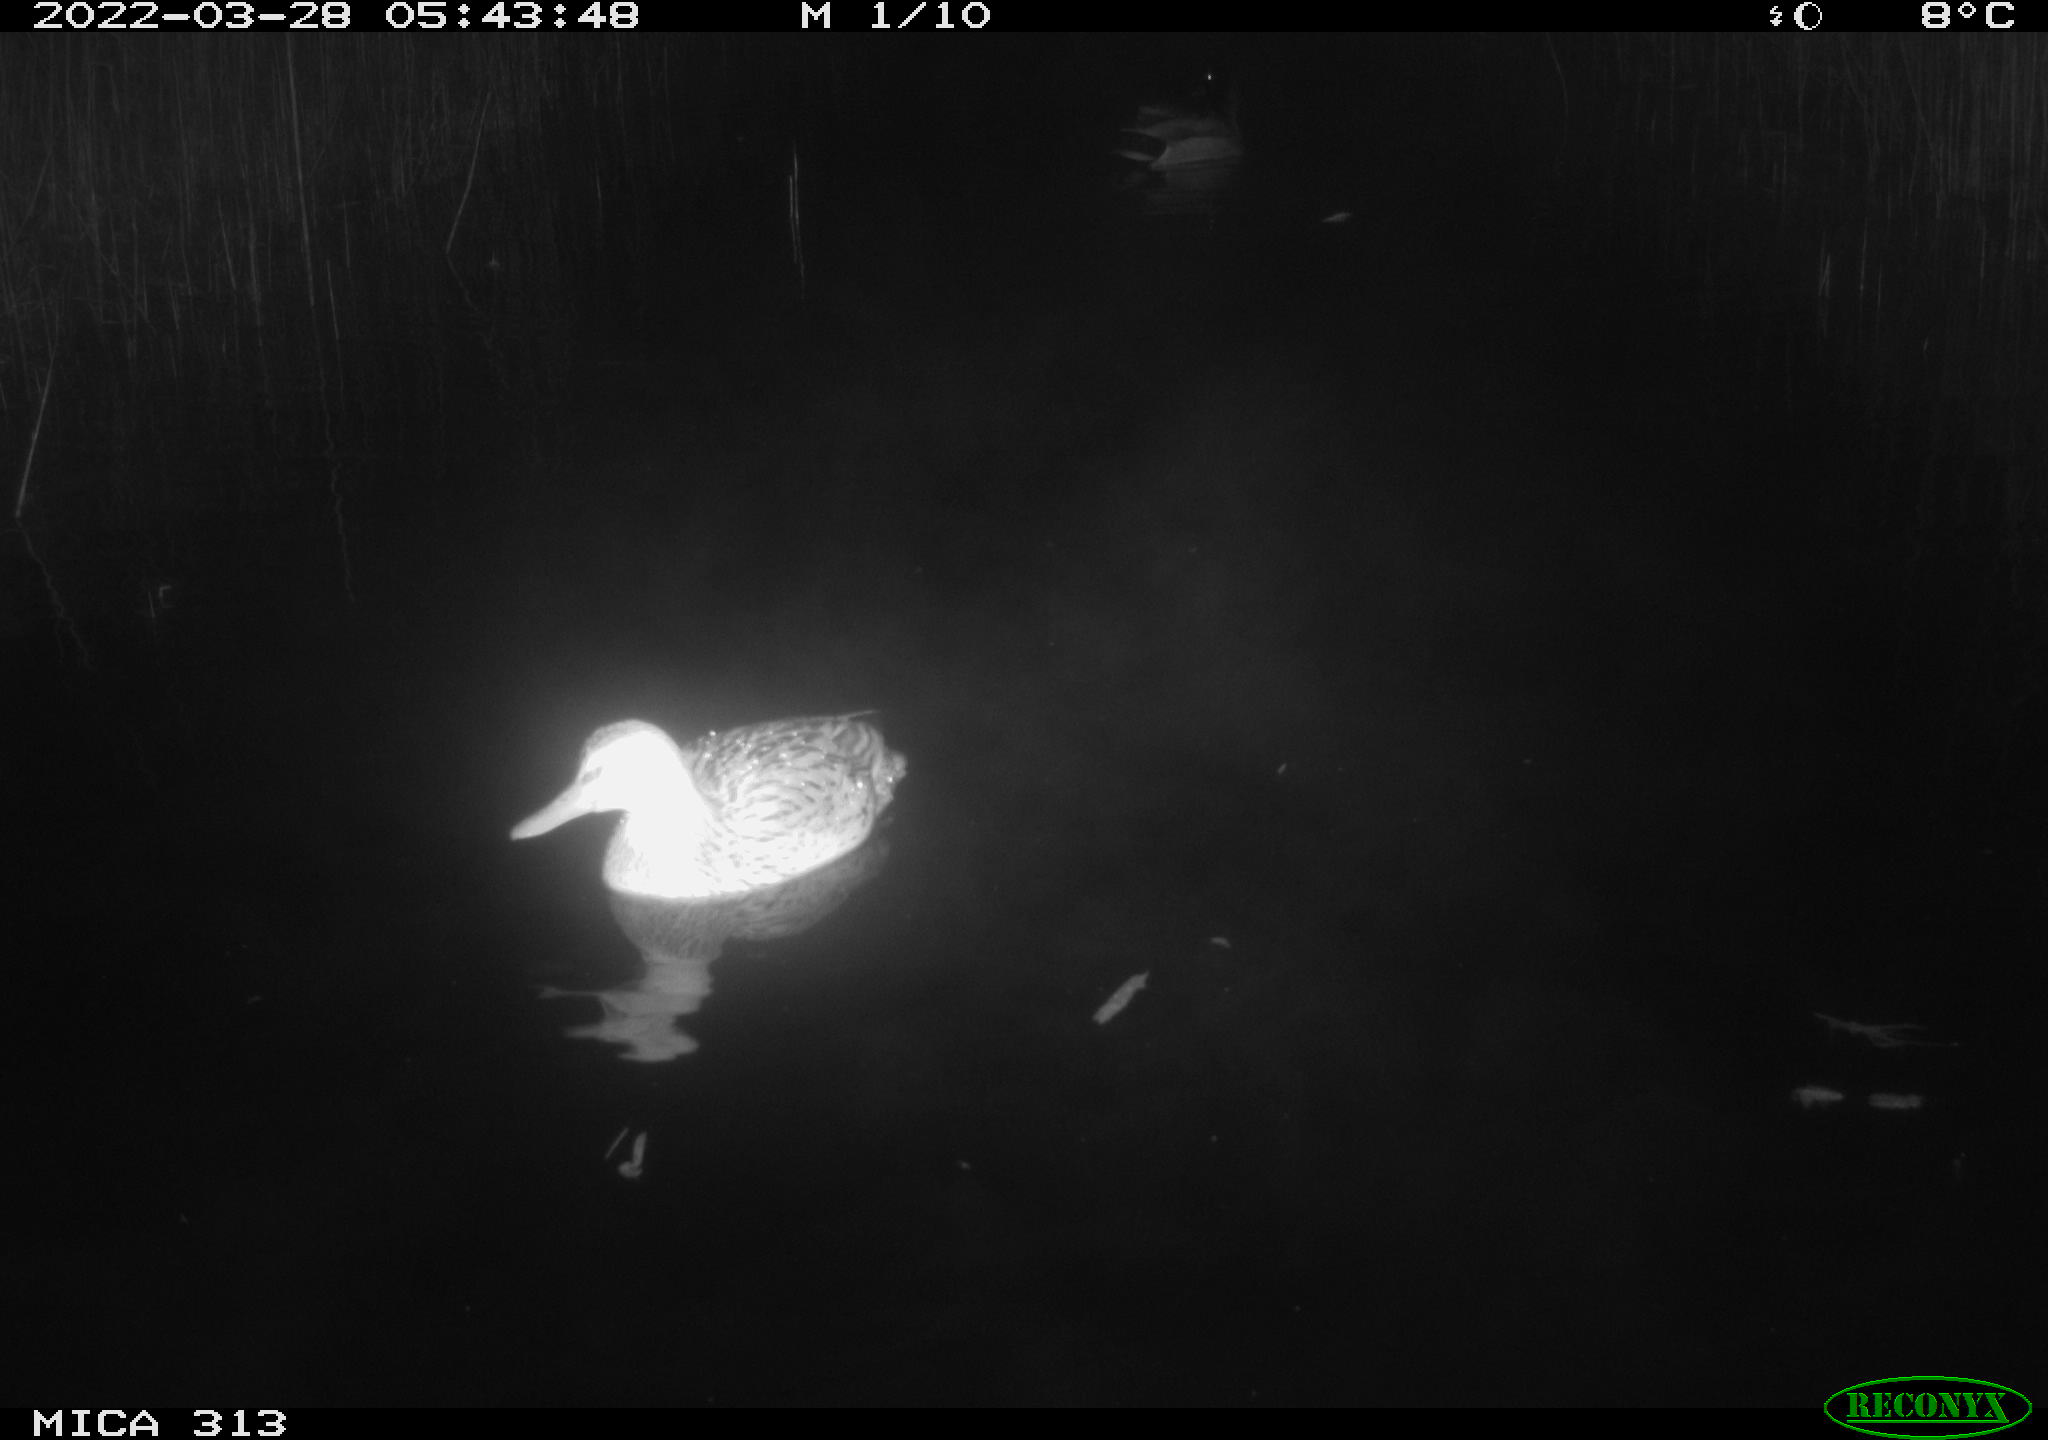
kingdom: Animalia
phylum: Chordata
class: Aves
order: Anseriformes
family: Anatidae
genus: Anas
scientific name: Anas platyrhynchos
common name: Mallard
